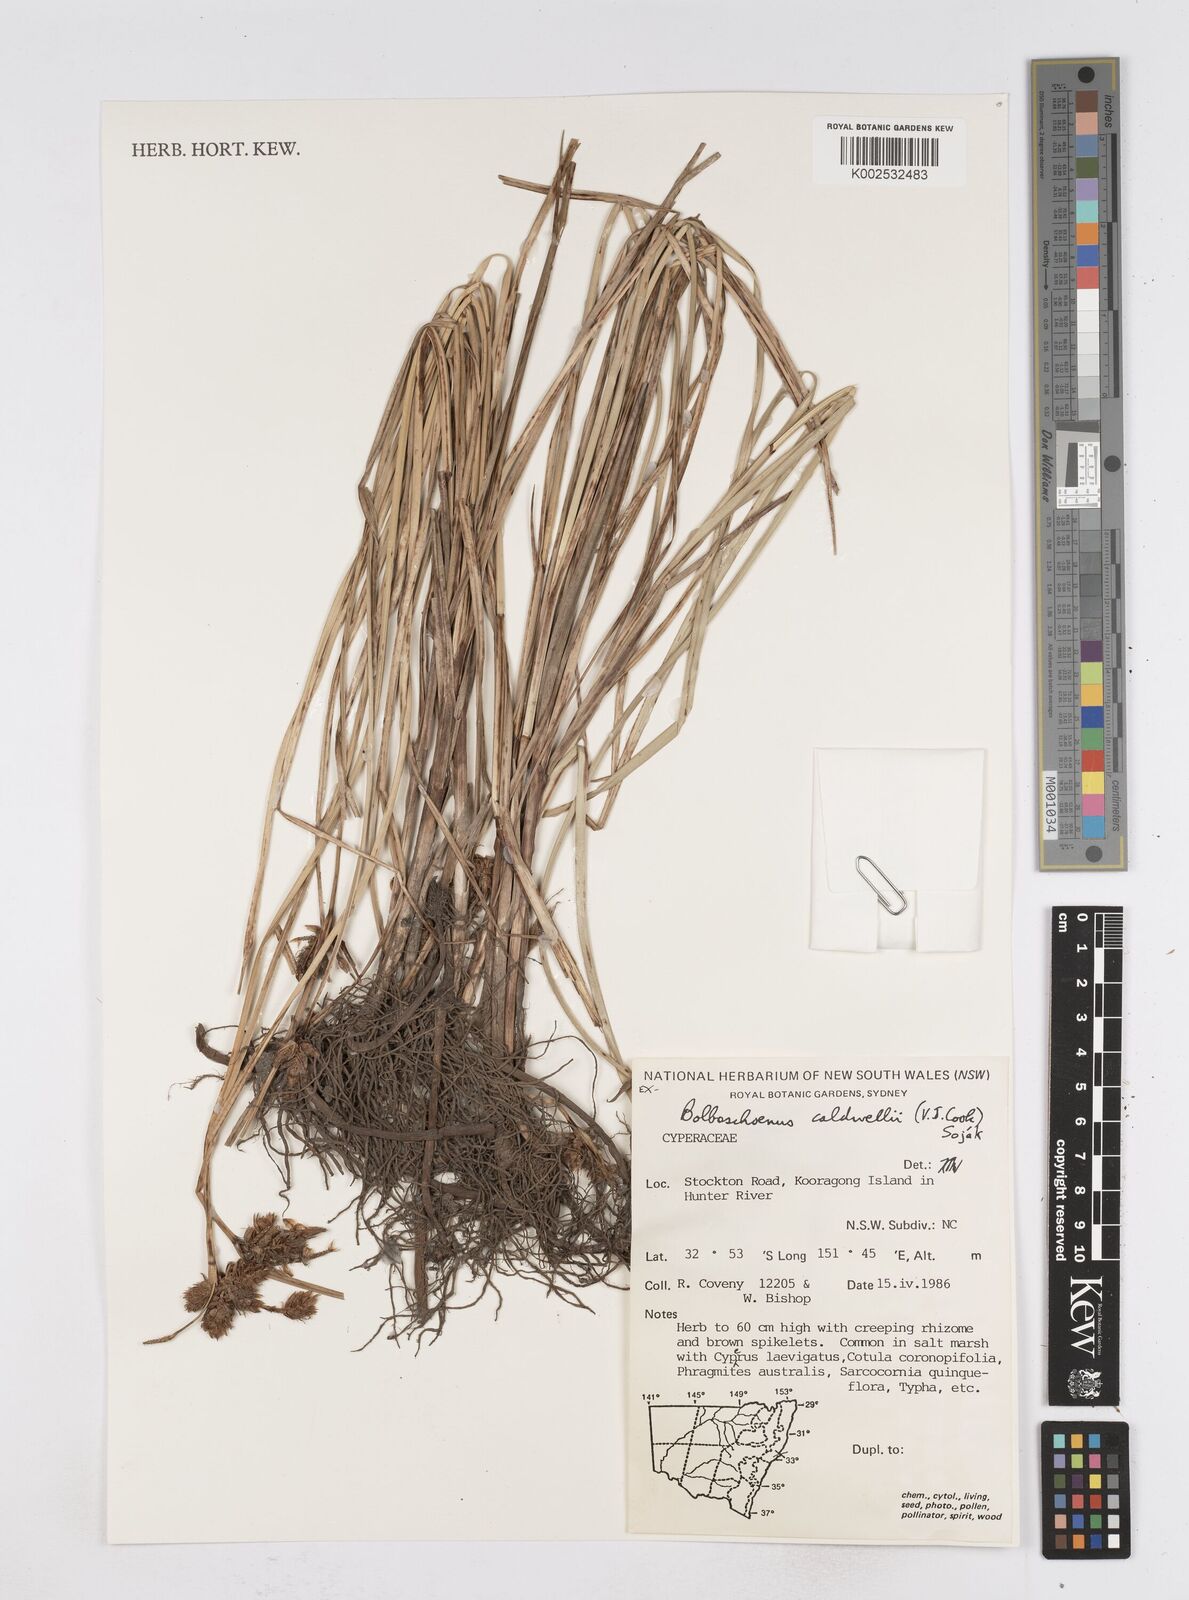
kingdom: Plantae
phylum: Tracheophyta
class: Liliopsida
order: Poales
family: Cyperaceae
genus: Bolboschoenus
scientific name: Bolboschoenus caldwellii
